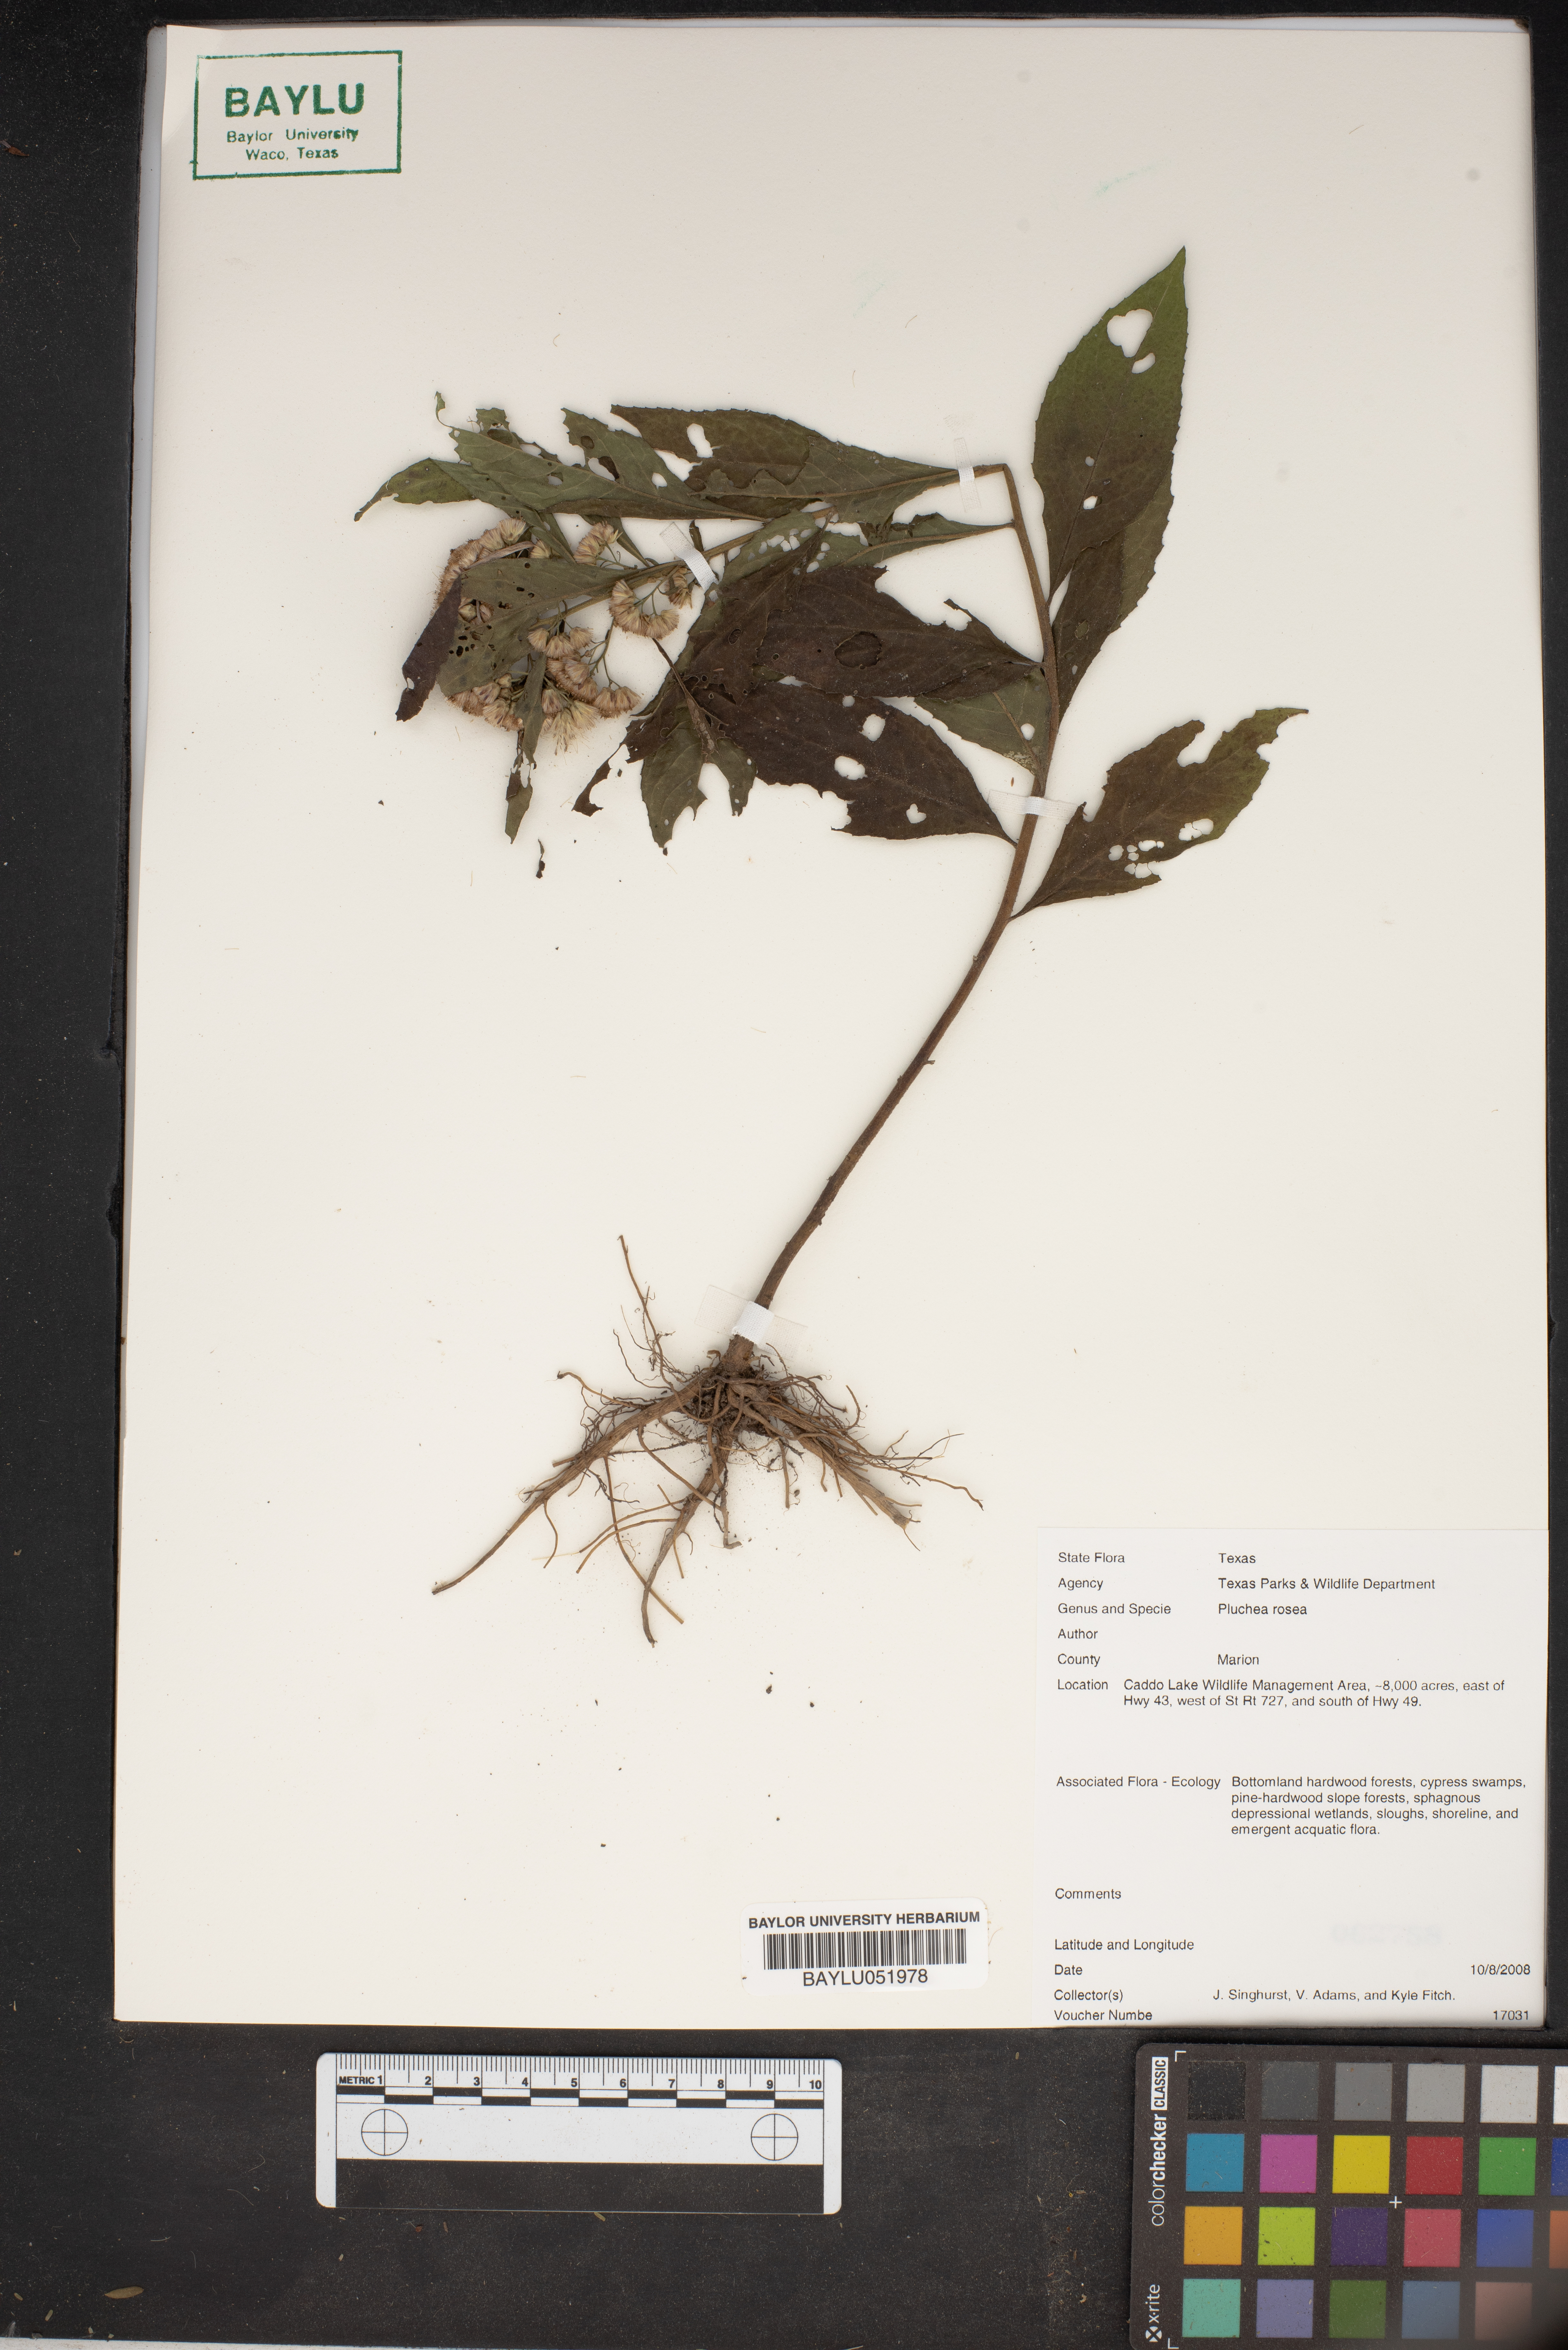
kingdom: Plantae
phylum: Tracheophyta
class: Magnoliopsida
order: Asterales
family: Asteraceae
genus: Pluchea
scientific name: Pluchea baccharis
